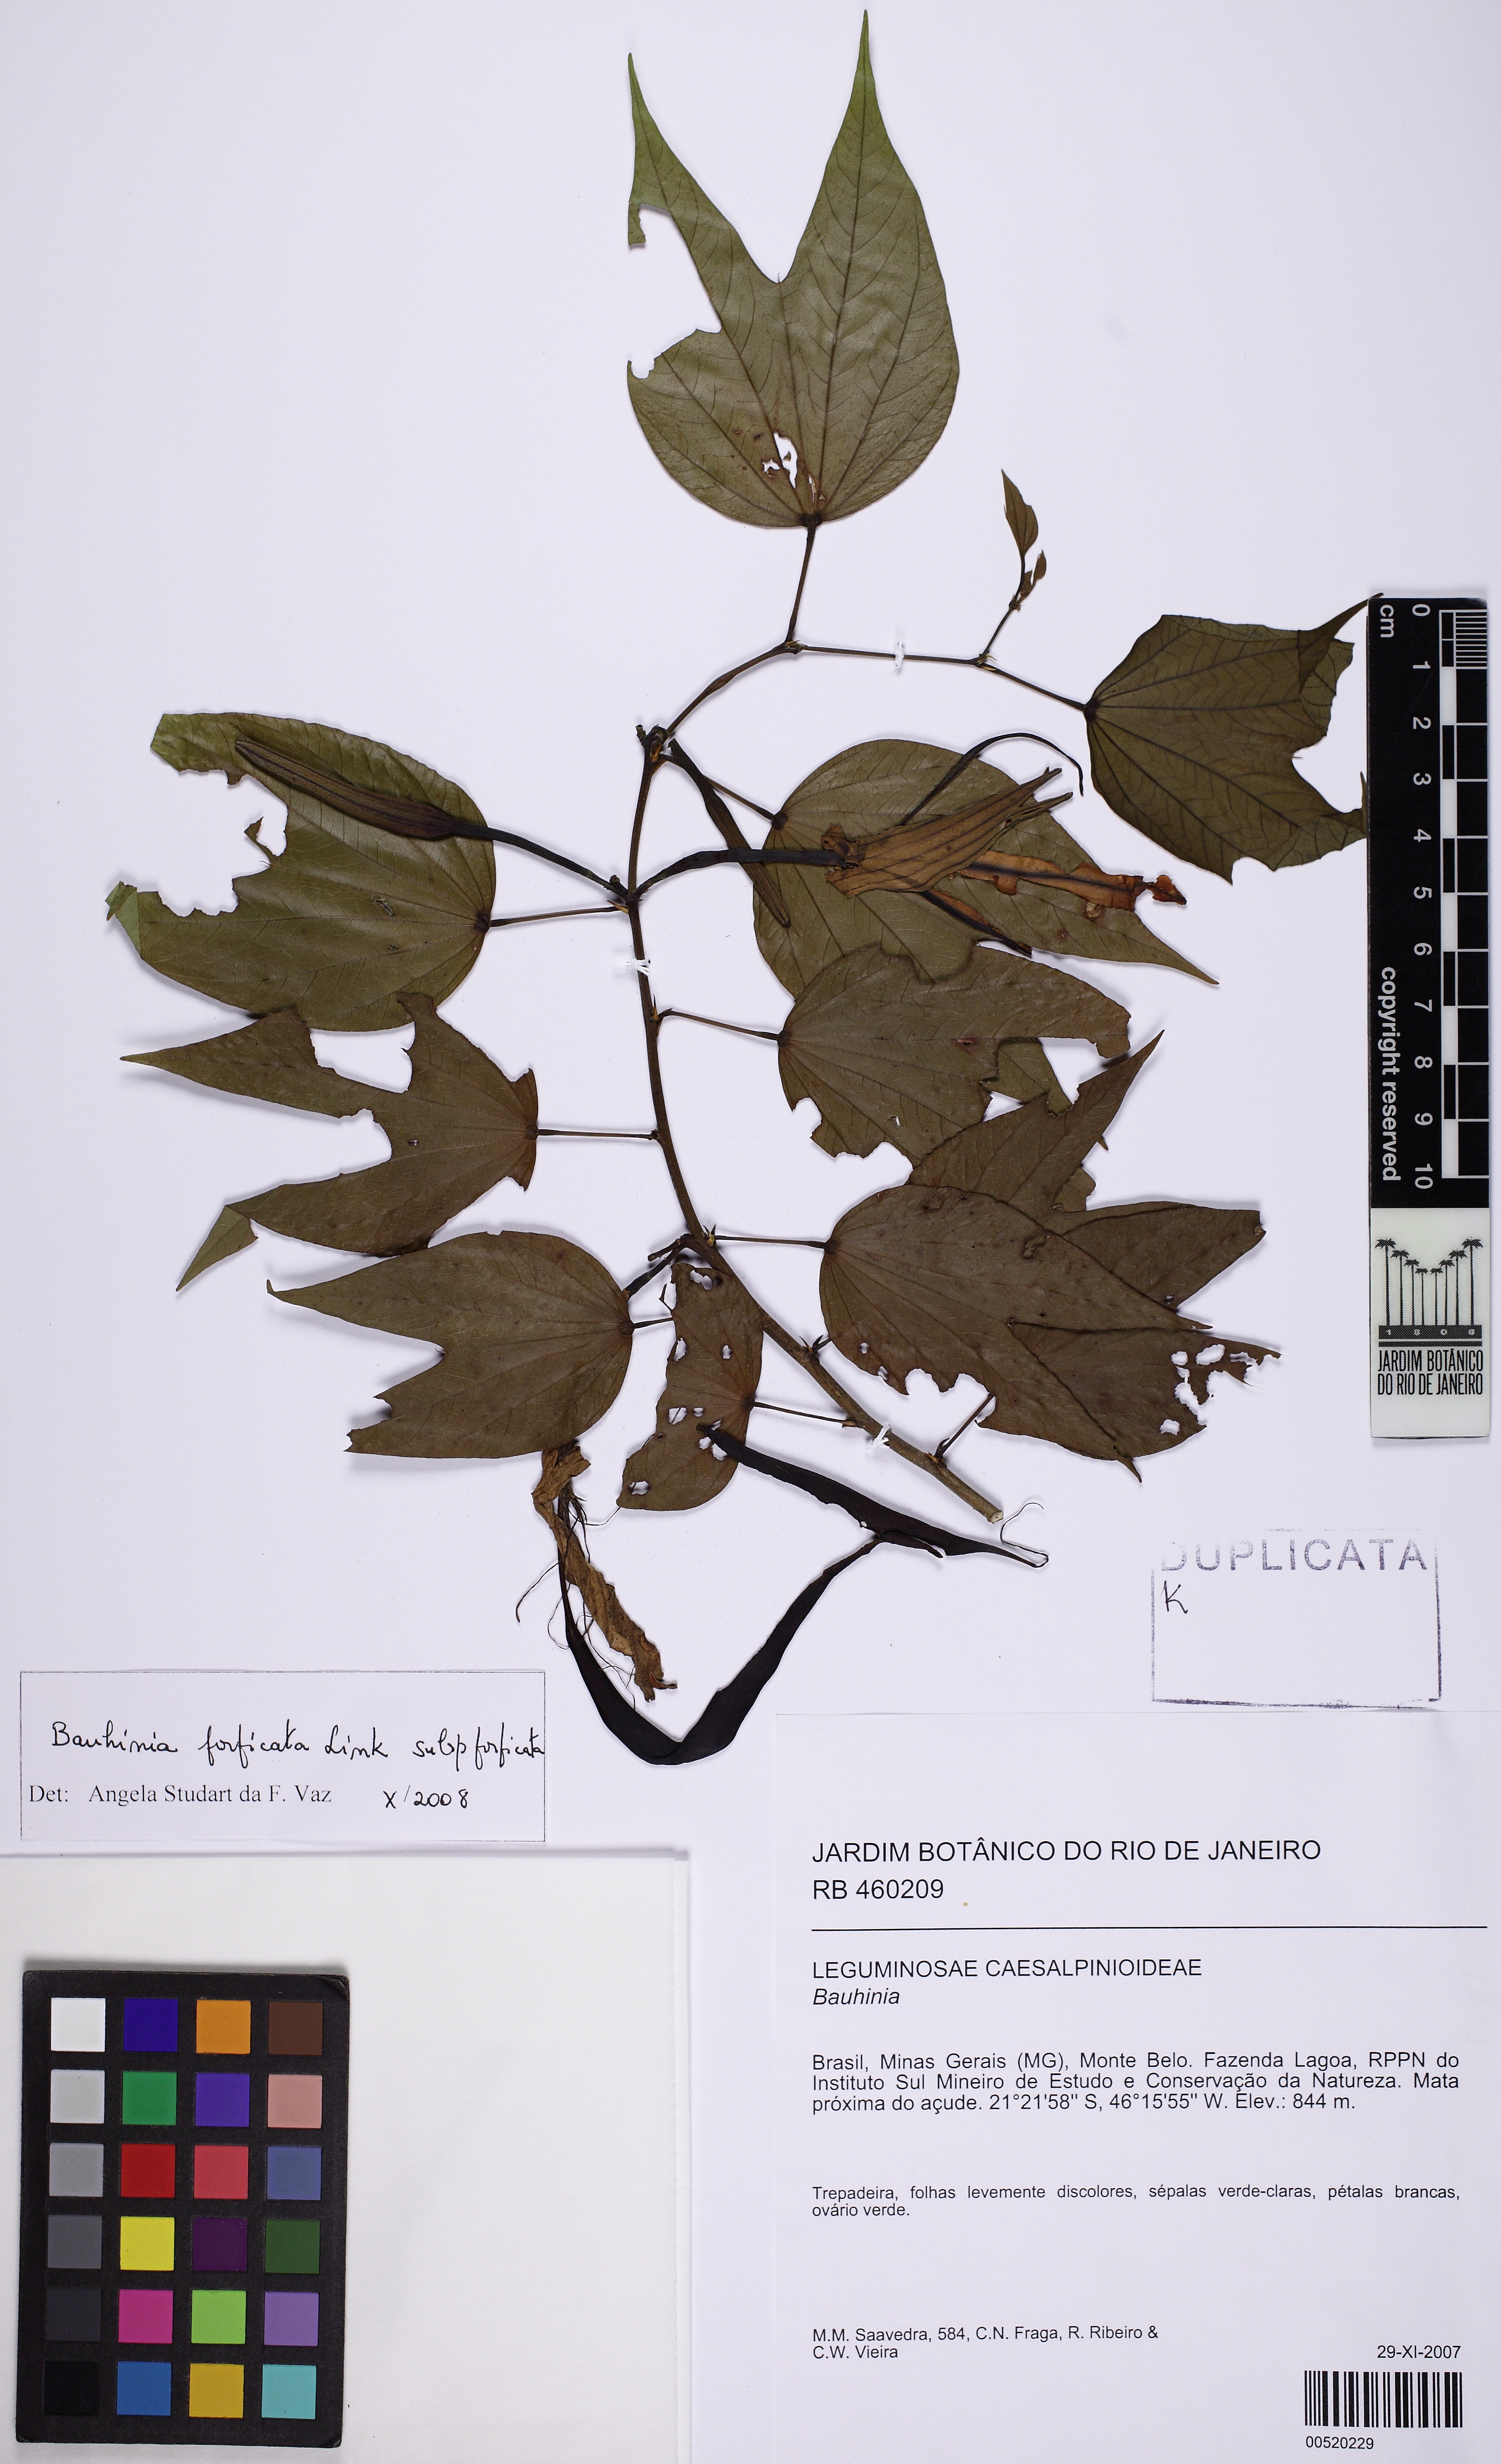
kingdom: Plantae
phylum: Tracheophyta
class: Magnoliopsida
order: Fabales
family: Fabaceae
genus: Bauhinia
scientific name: Bauhinia forficata
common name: Orchid tree
